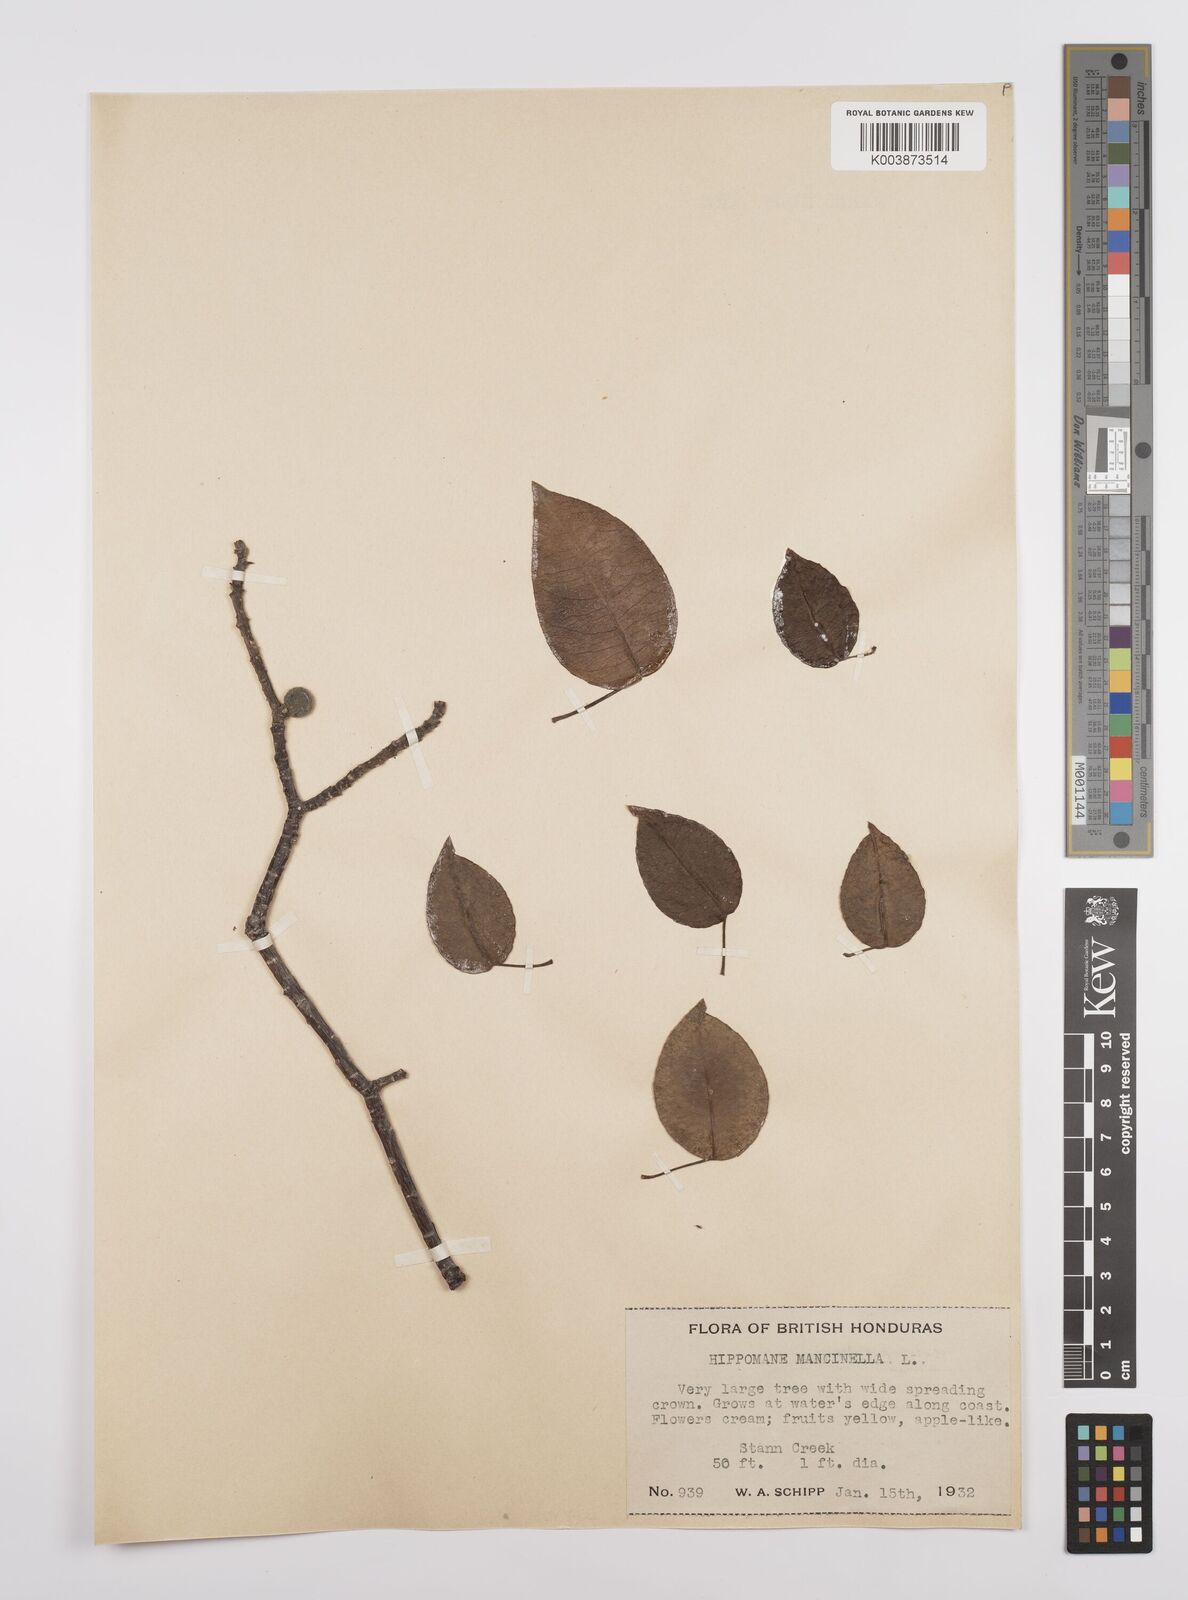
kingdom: Plantae
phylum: Tracheophyta
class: Magnoliopsida
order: Malpighiales
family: Euphorbiaceae
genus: Hippomane
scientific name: Hippomane mancinella
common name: Manchineel
